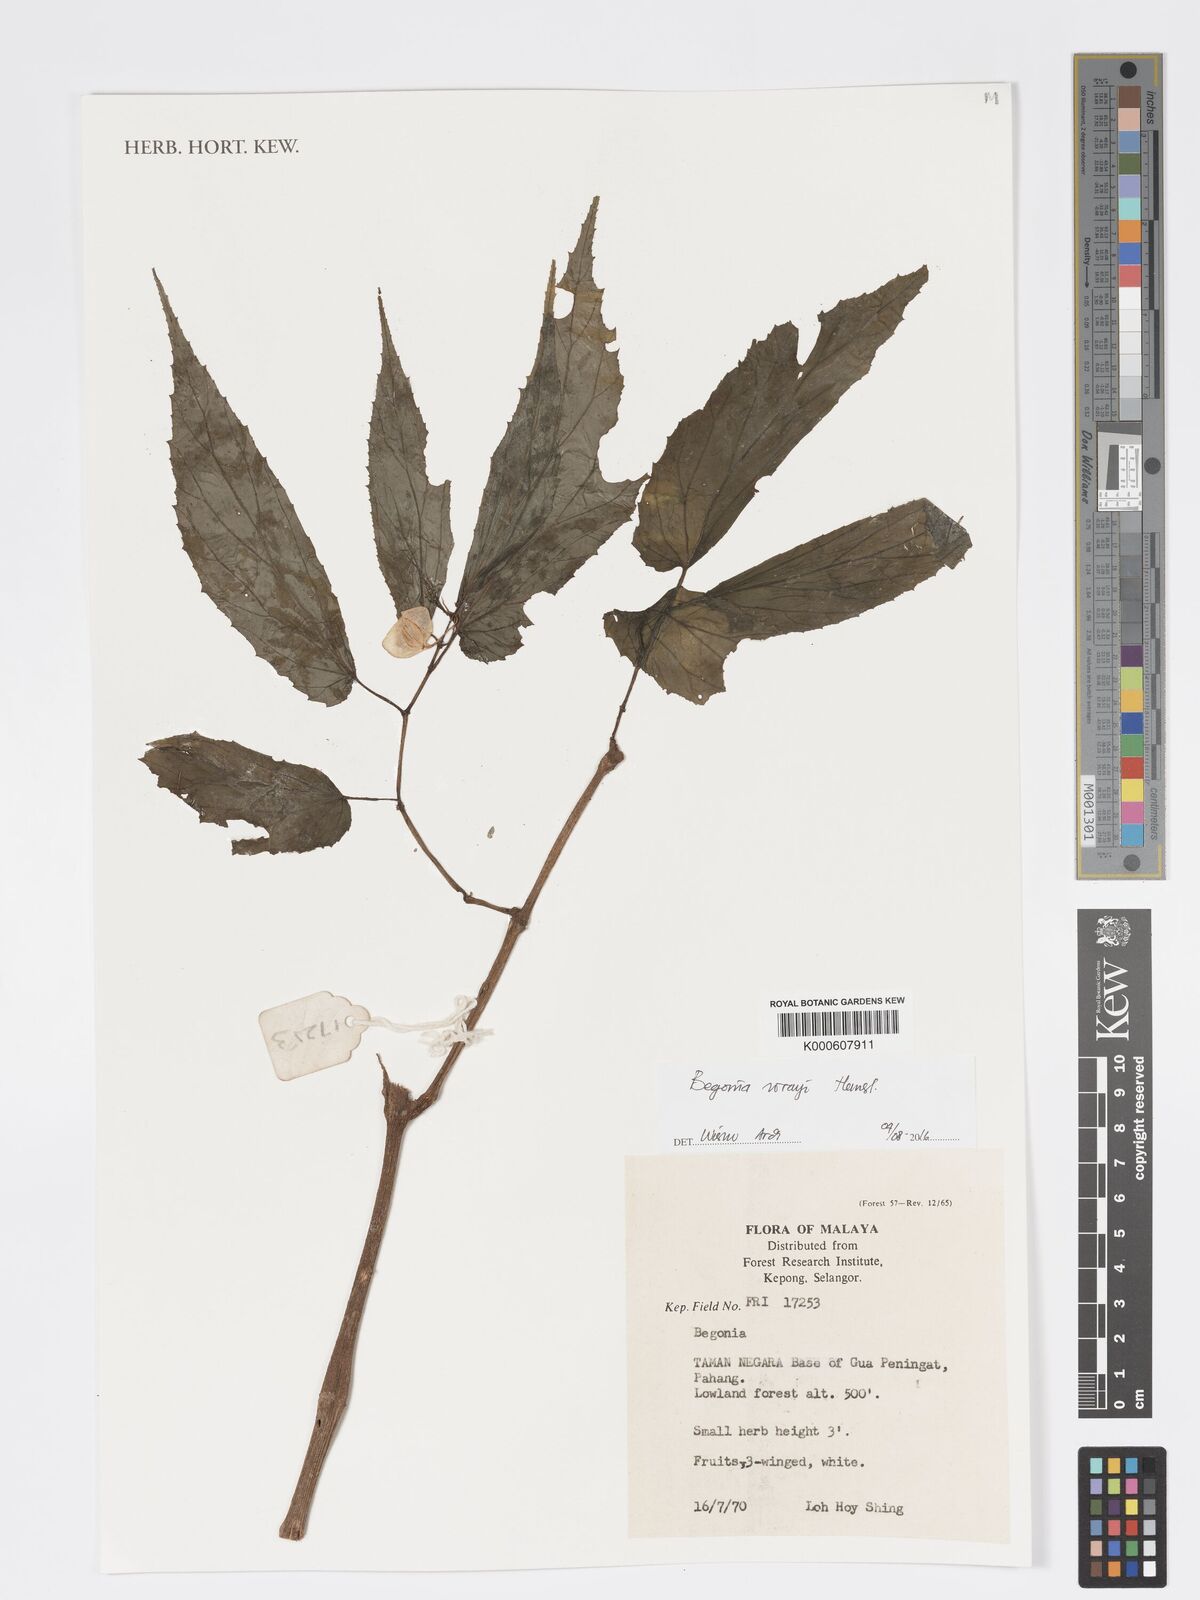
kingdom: Plantae
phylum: Tracheophyta
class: Magnoliopsida
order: Cucurbitales
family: Begoniaceae
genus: Begonia
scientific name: Begonia wrayi
